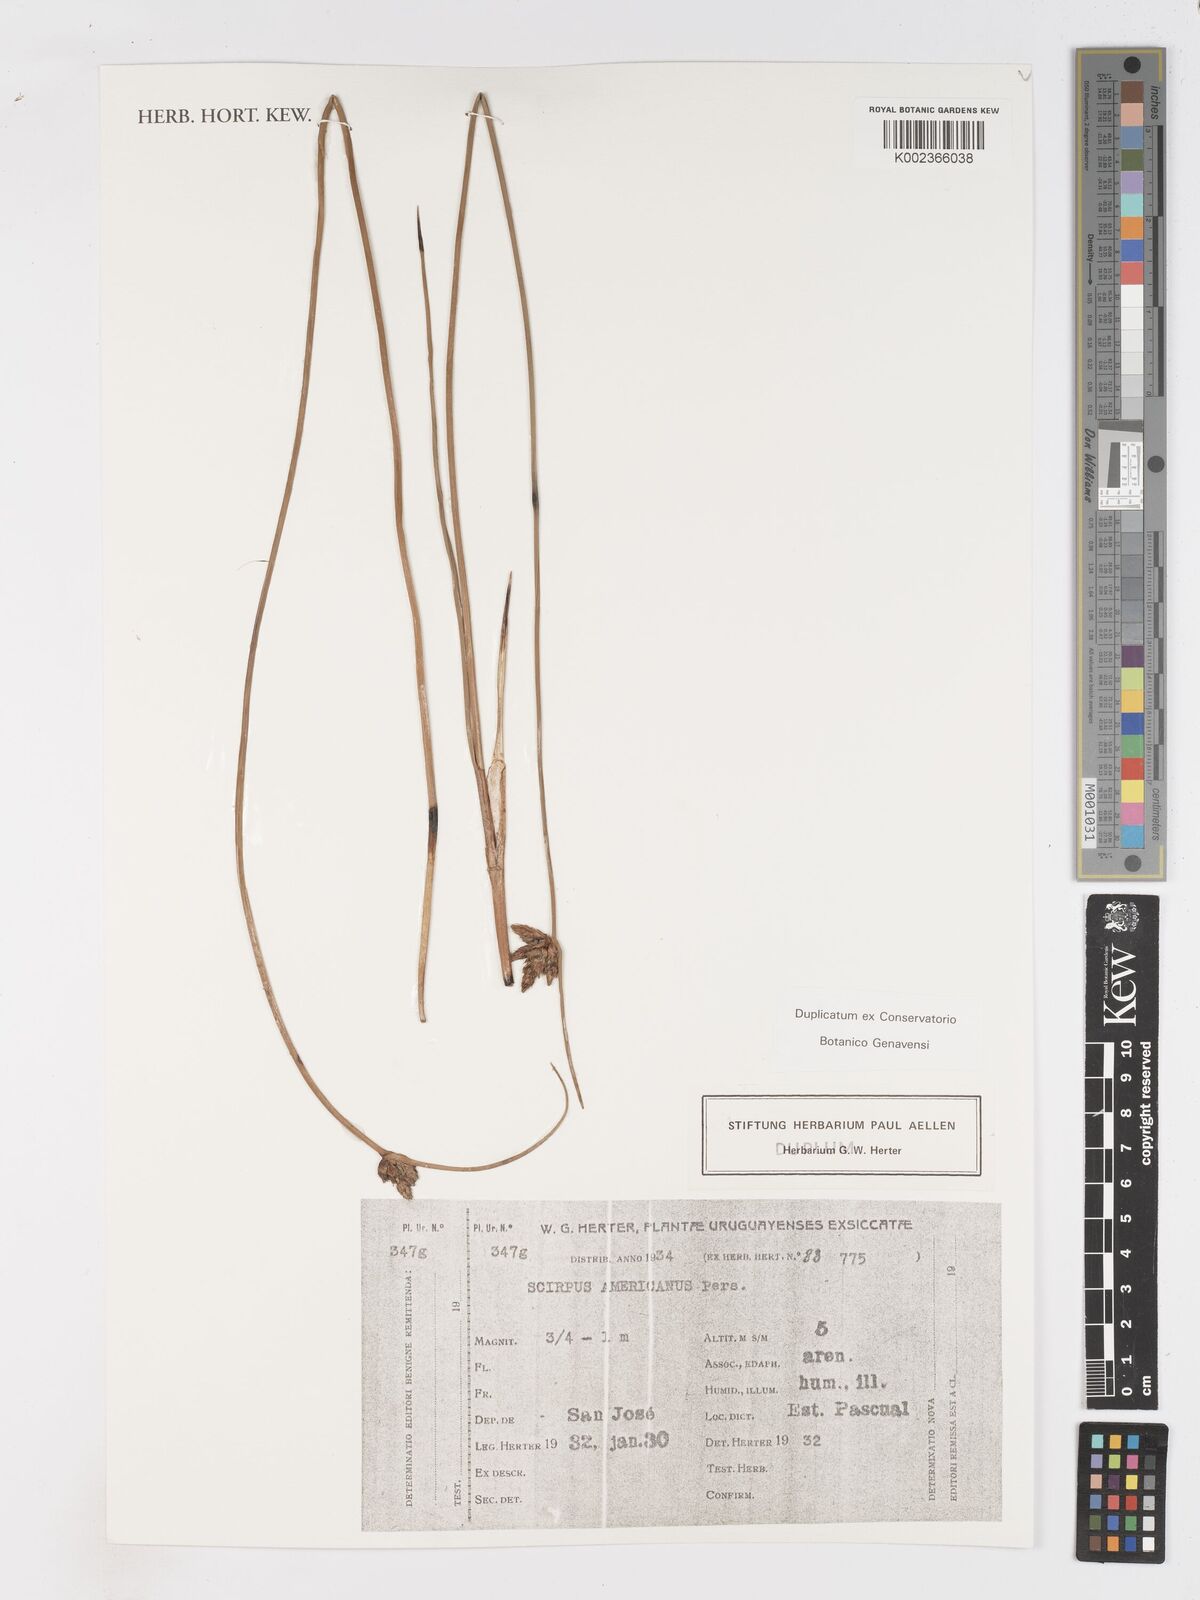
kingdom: Plantae
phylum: Tracheophyta
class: Liliopsida
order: Poales
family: Cyperaceae
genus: Schoenoplectus
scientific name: Schoenoplectus americanus
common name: American three-square bulrush
